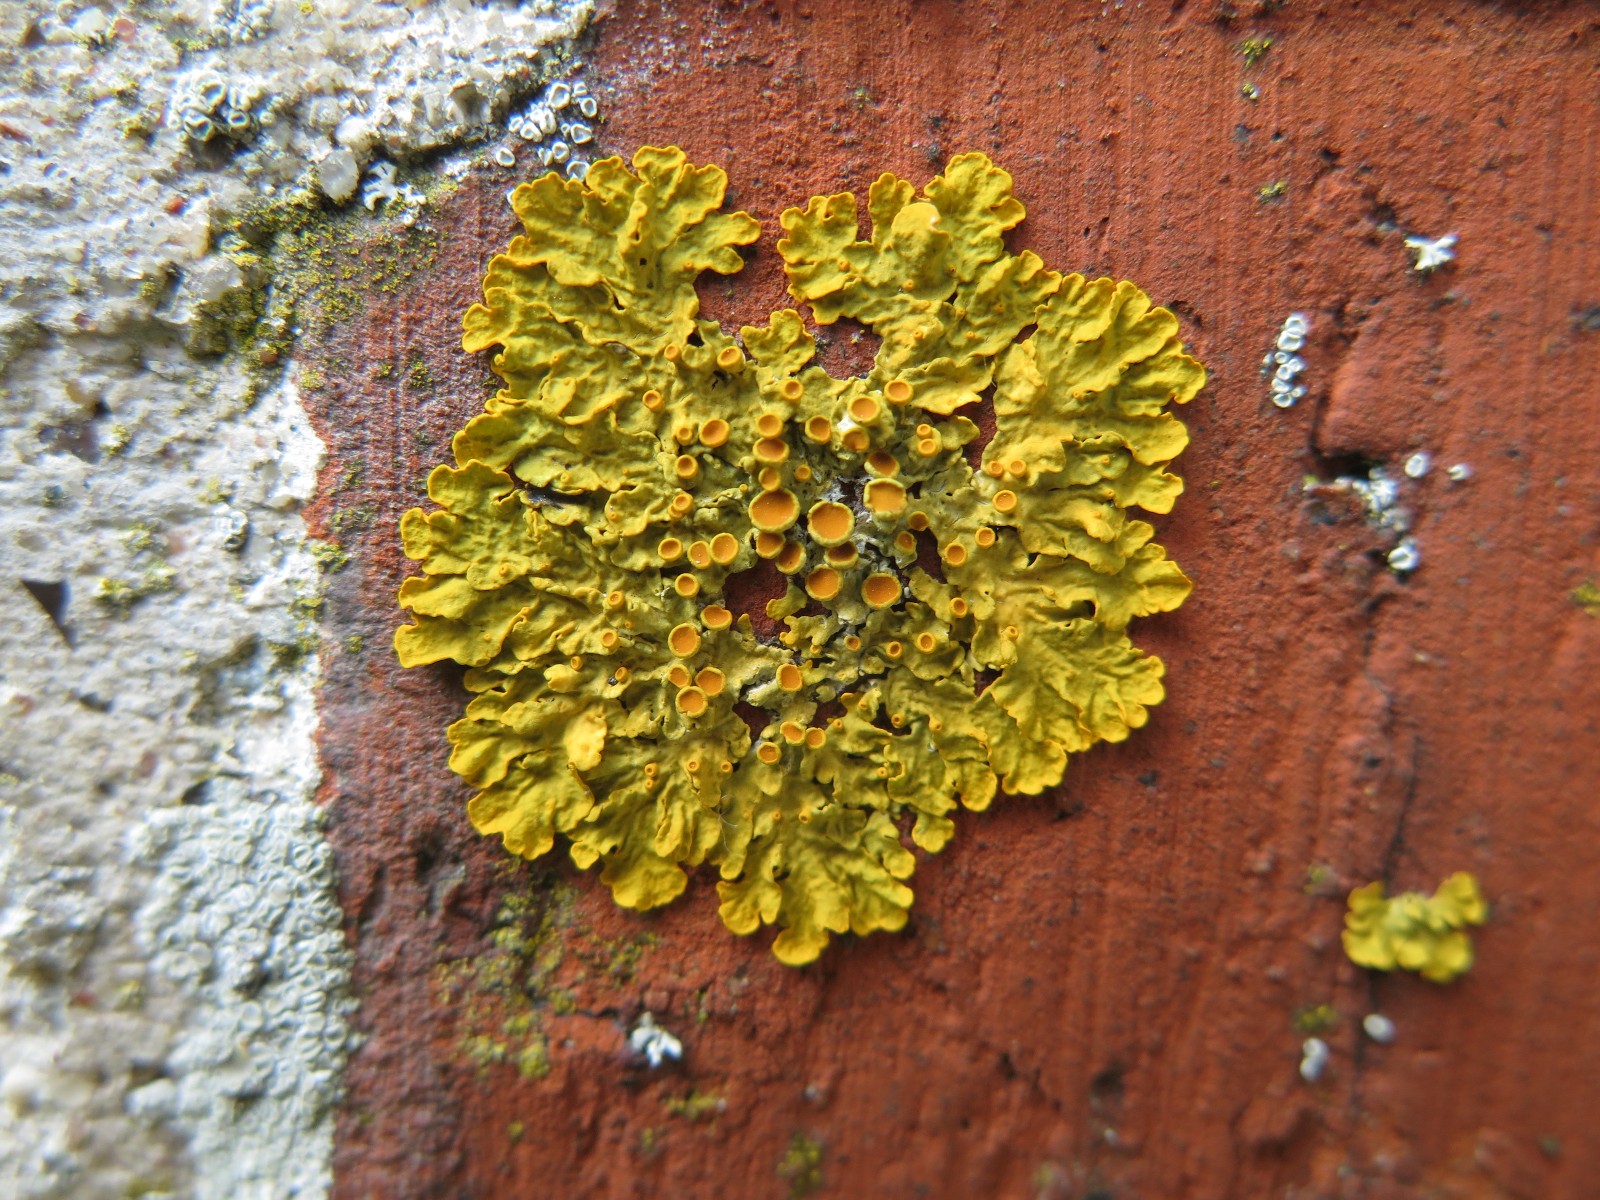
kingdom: Fungi
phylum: Ascomycota
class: Lecanoromycetes
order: Teloschistales
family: Teloschistaceae
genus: Xanthoria
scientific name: Xanthoria parietina
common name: almindelig væggelav
